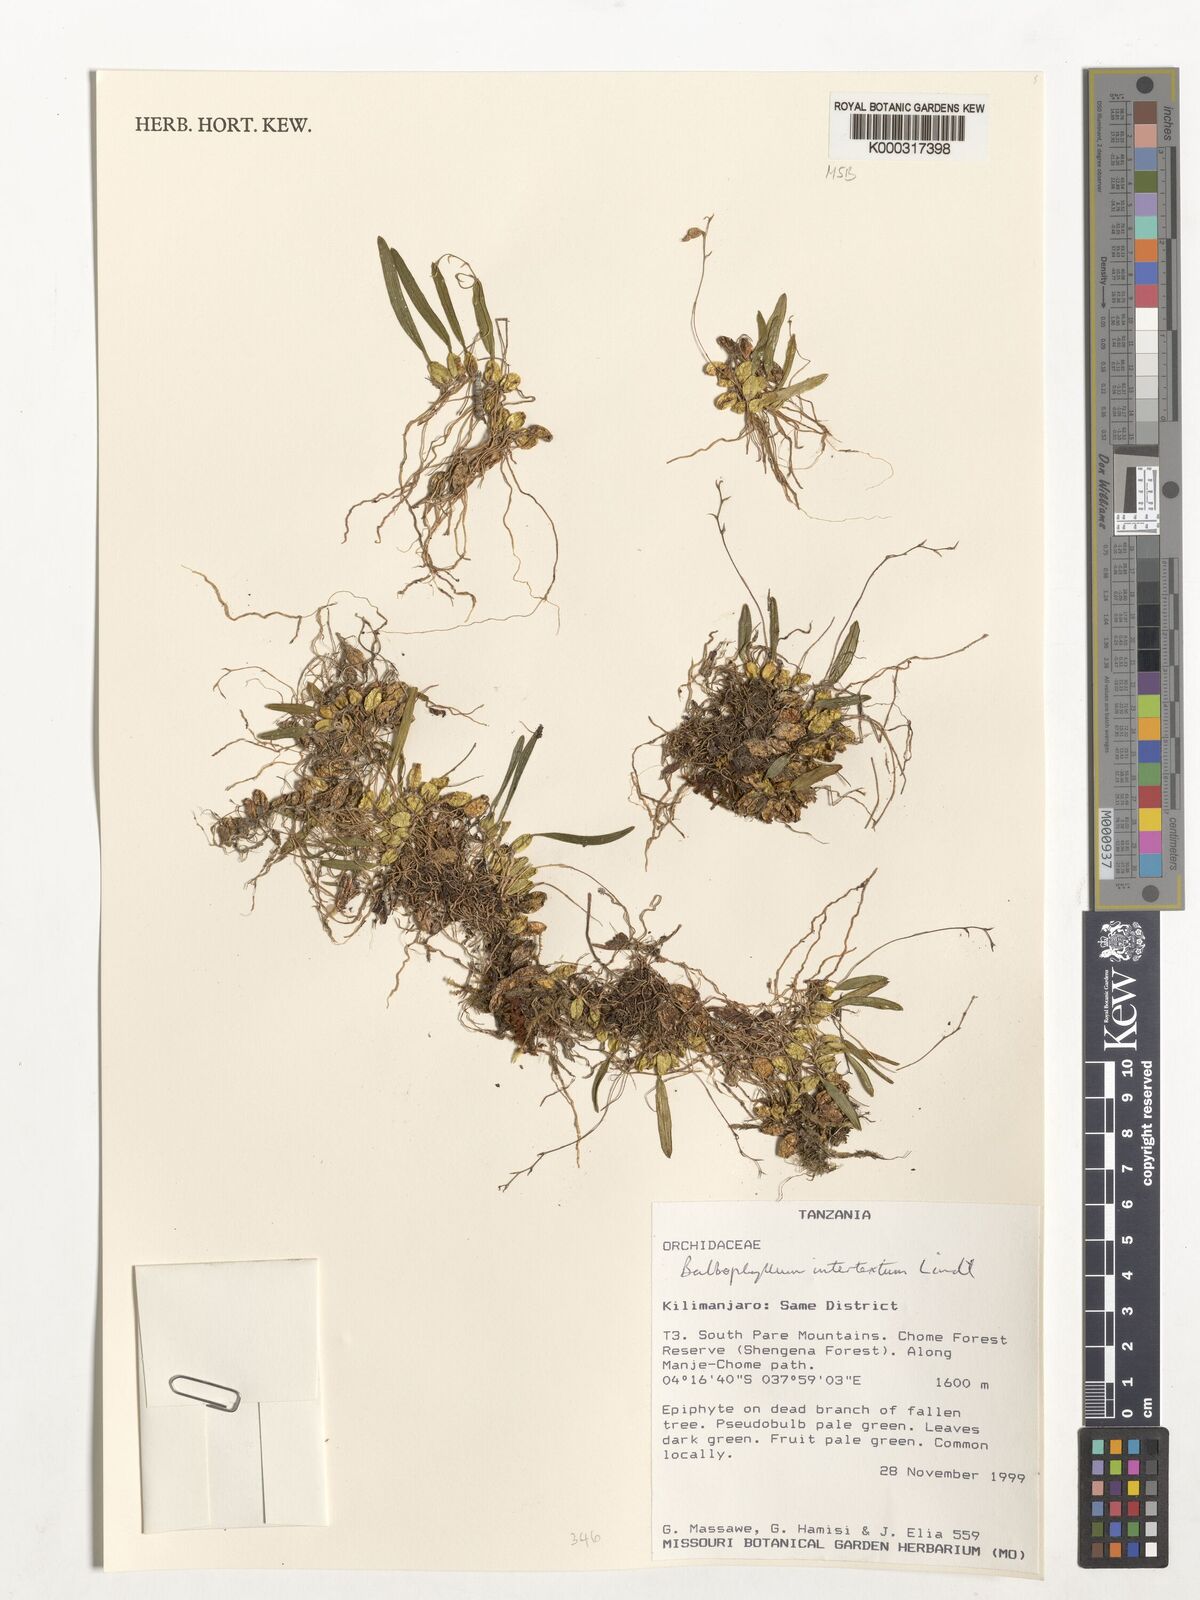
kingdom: Plantae
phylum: Tracheophyta
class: Liliopsida
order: Asparagales
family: Orchidaceae
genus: Bulbophyllum
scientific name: Bulbophyllum intertextum
